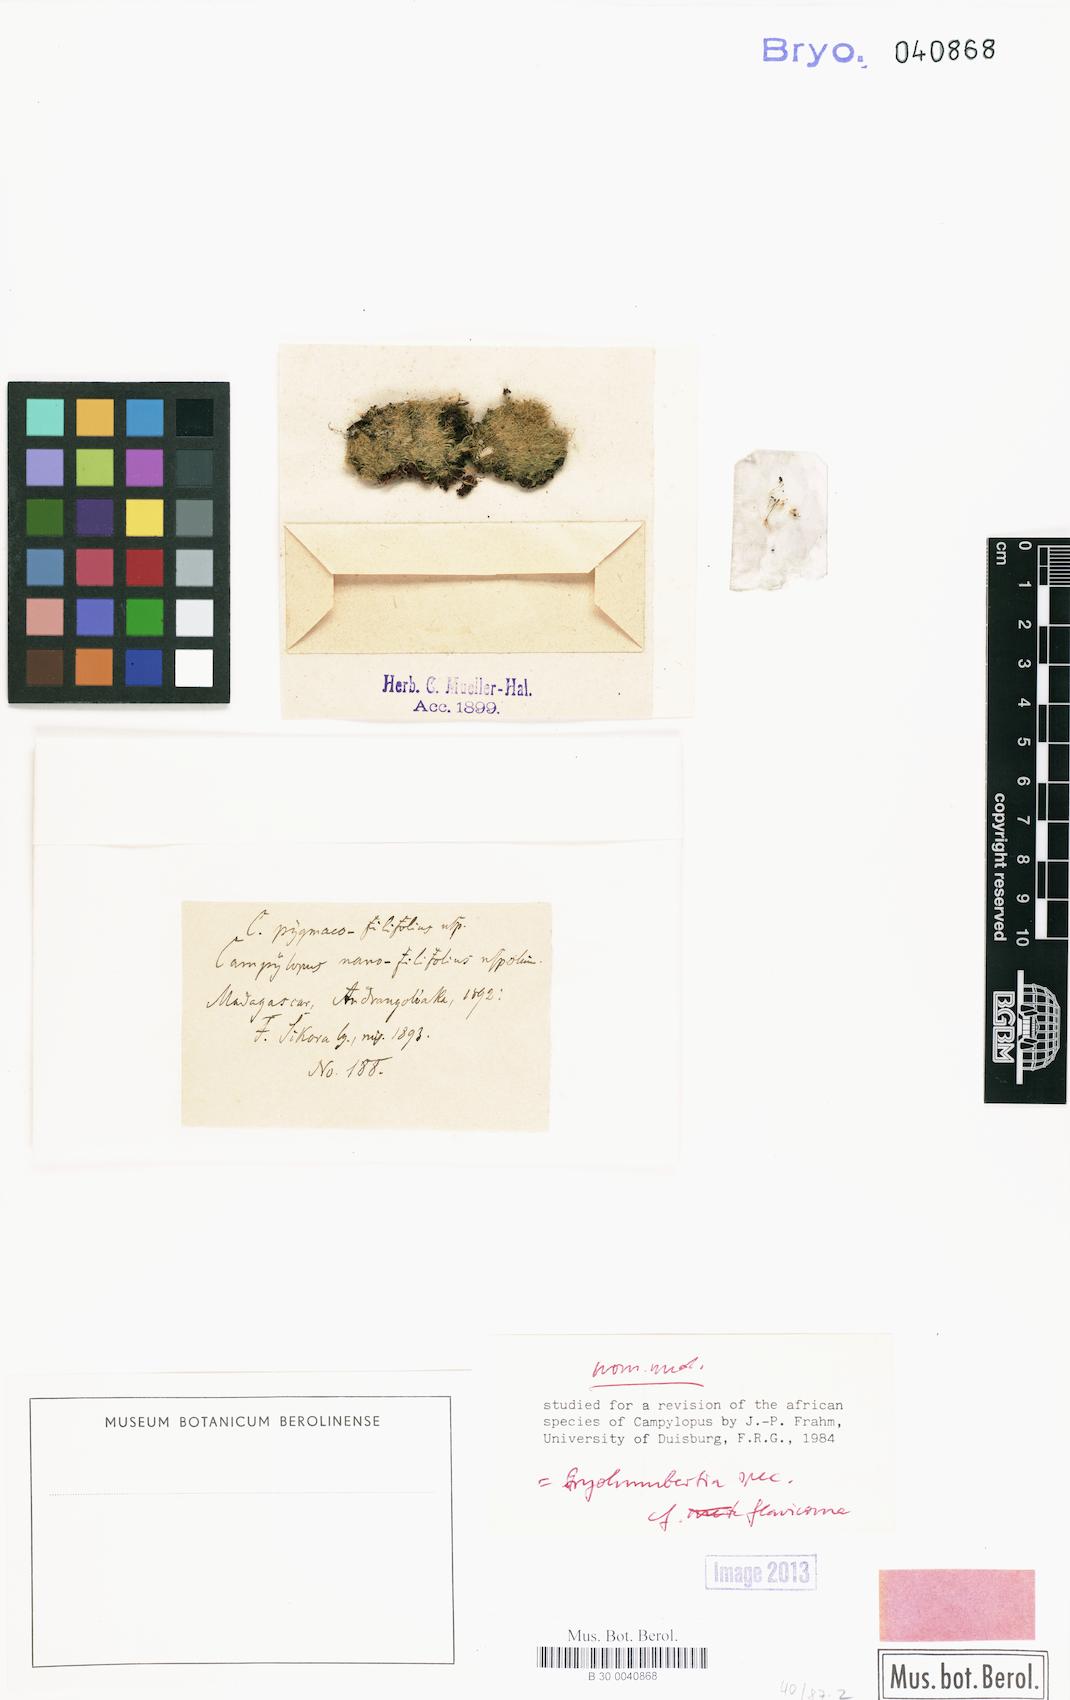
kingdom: Plantae
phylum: Bryophyta
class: Bryopsida
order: Dicranales
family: Leucobryaceae
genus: Campylopus
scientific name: Campylopus
